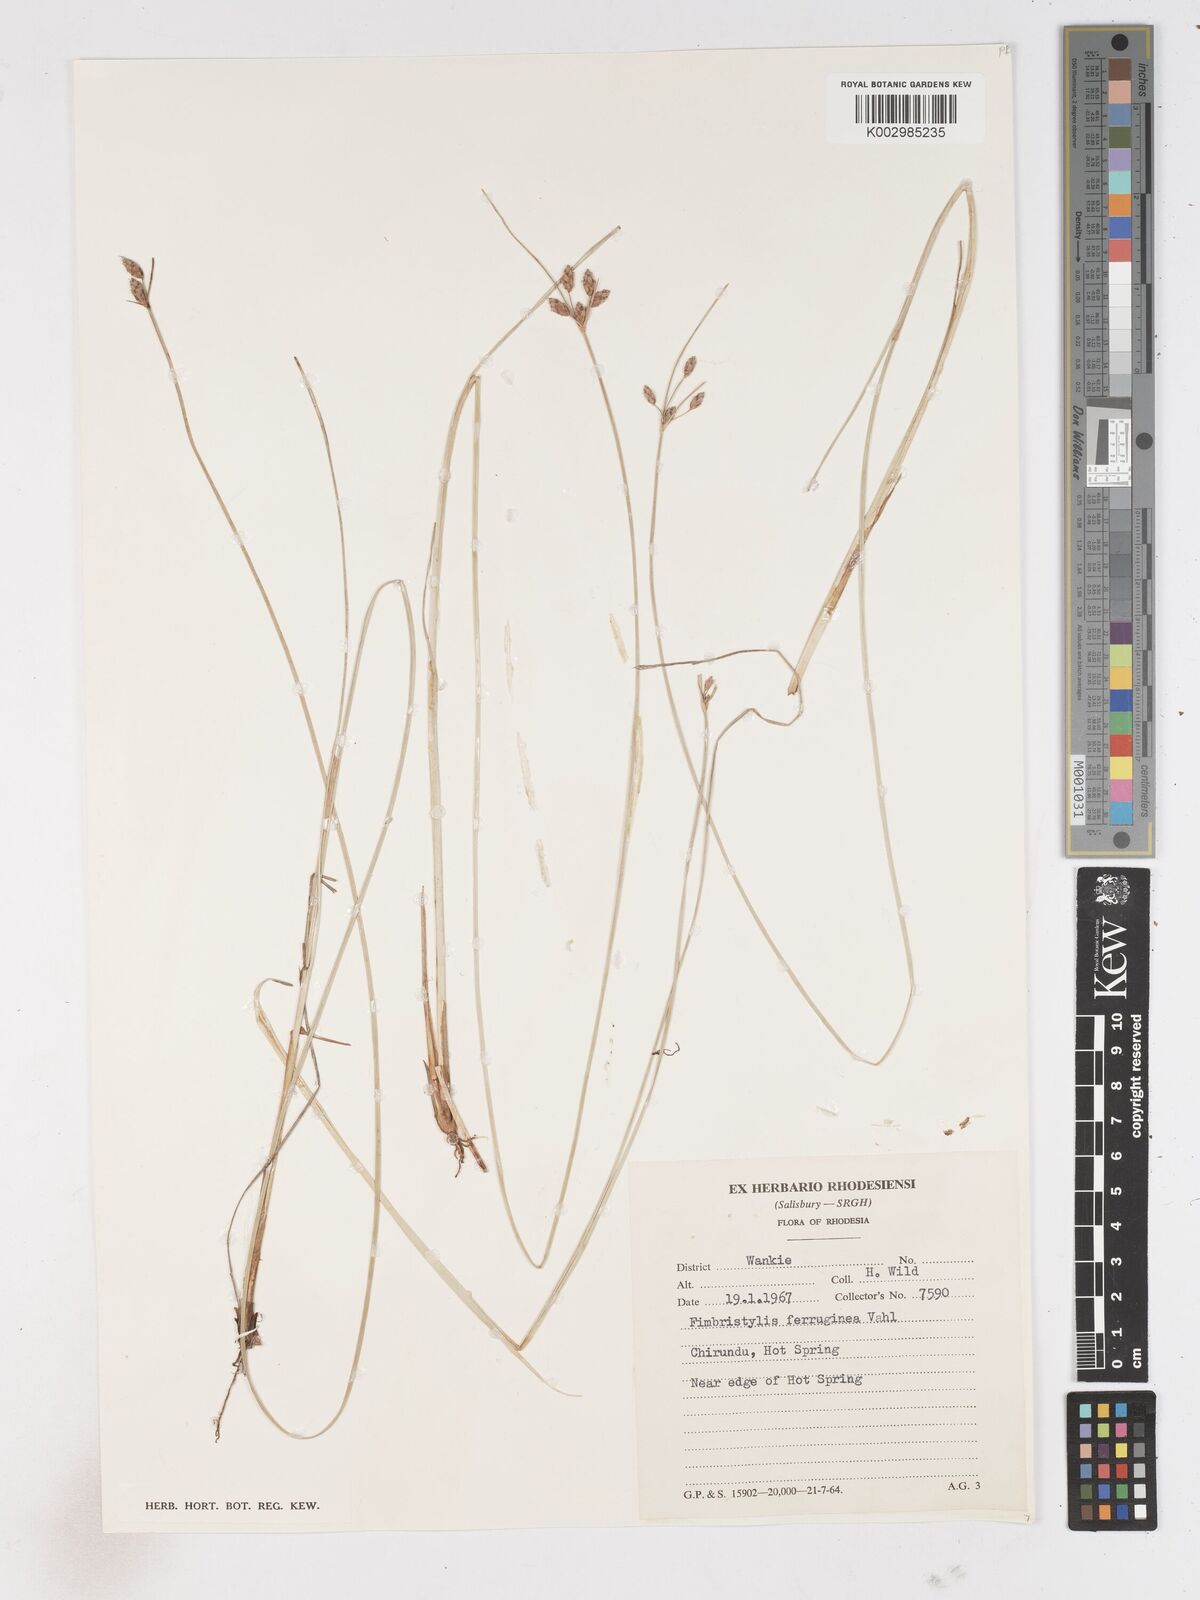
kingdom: Plantae
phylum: Tracheophyta
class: Liliopsida
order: Poales
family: Cyperaceae
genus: Fimbristylis
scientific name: Fimbristylis
